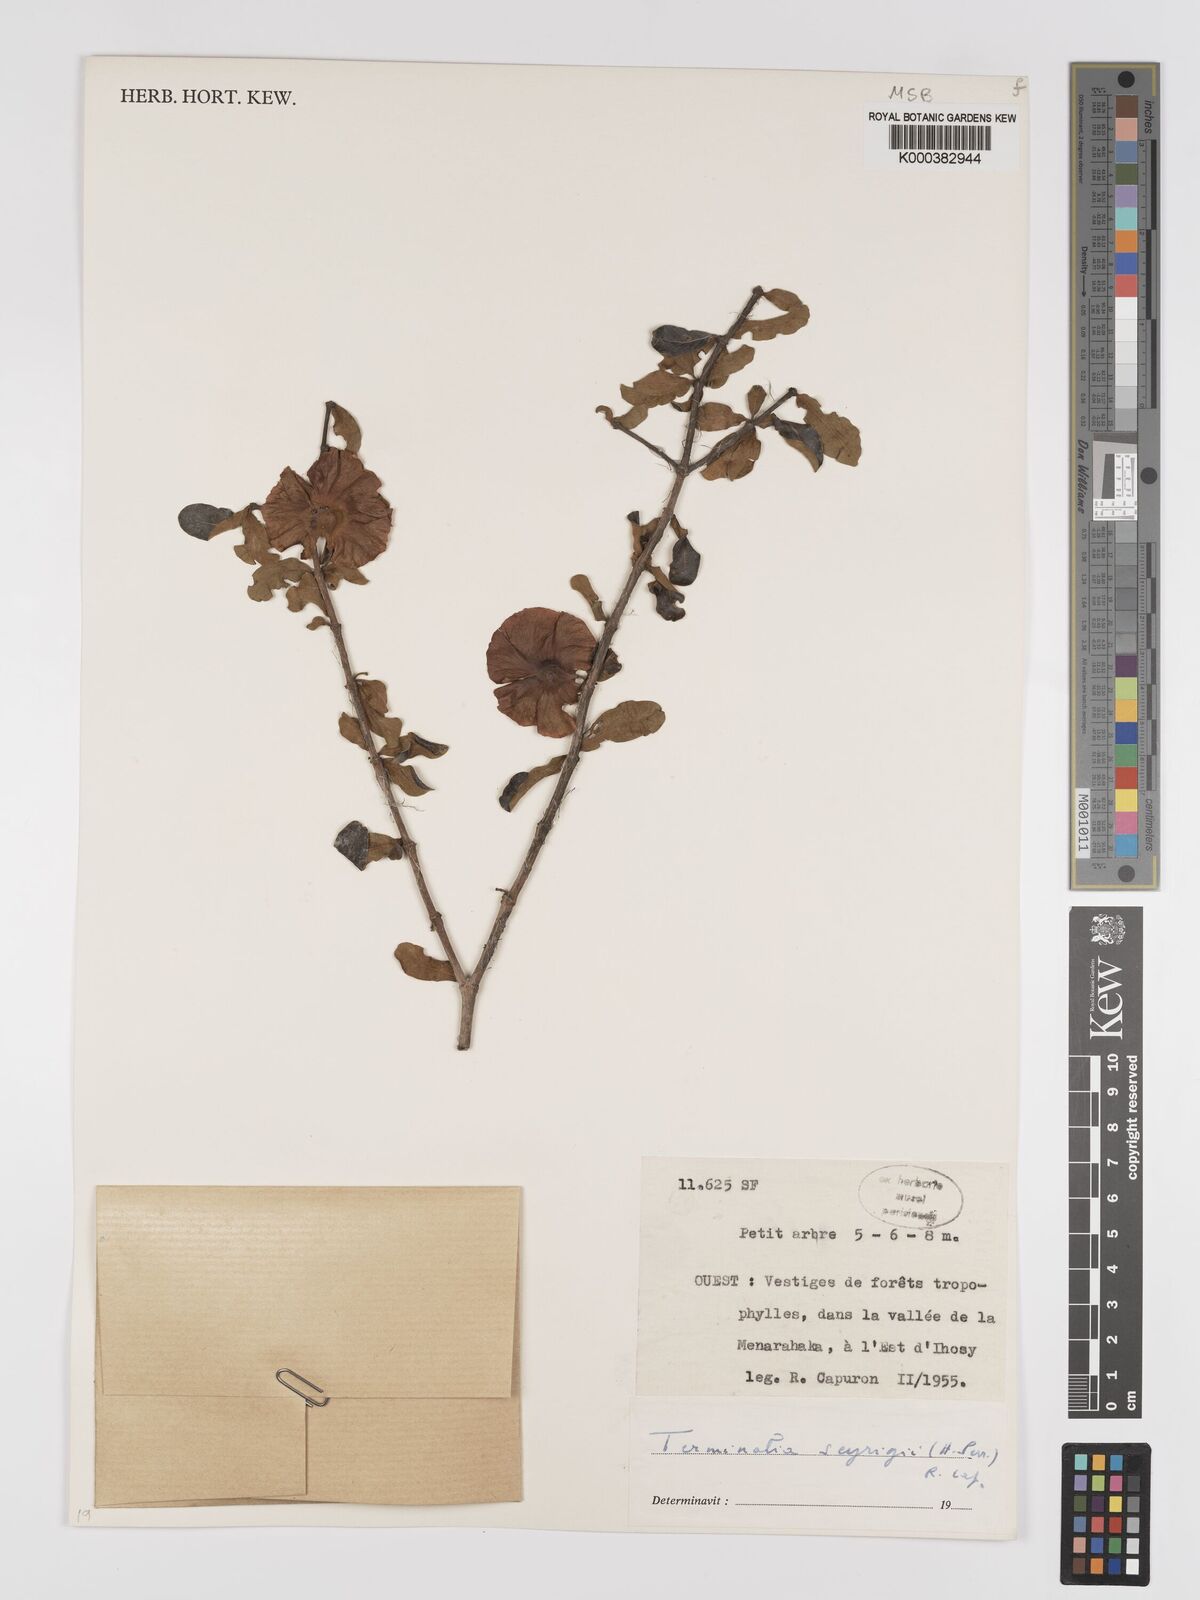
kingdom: Plantae
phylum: Tracheophyta
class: Magnoliopsida
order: Myrtales
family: Combretaceae
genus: Terminalia
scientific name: Terminalia seyrigii
